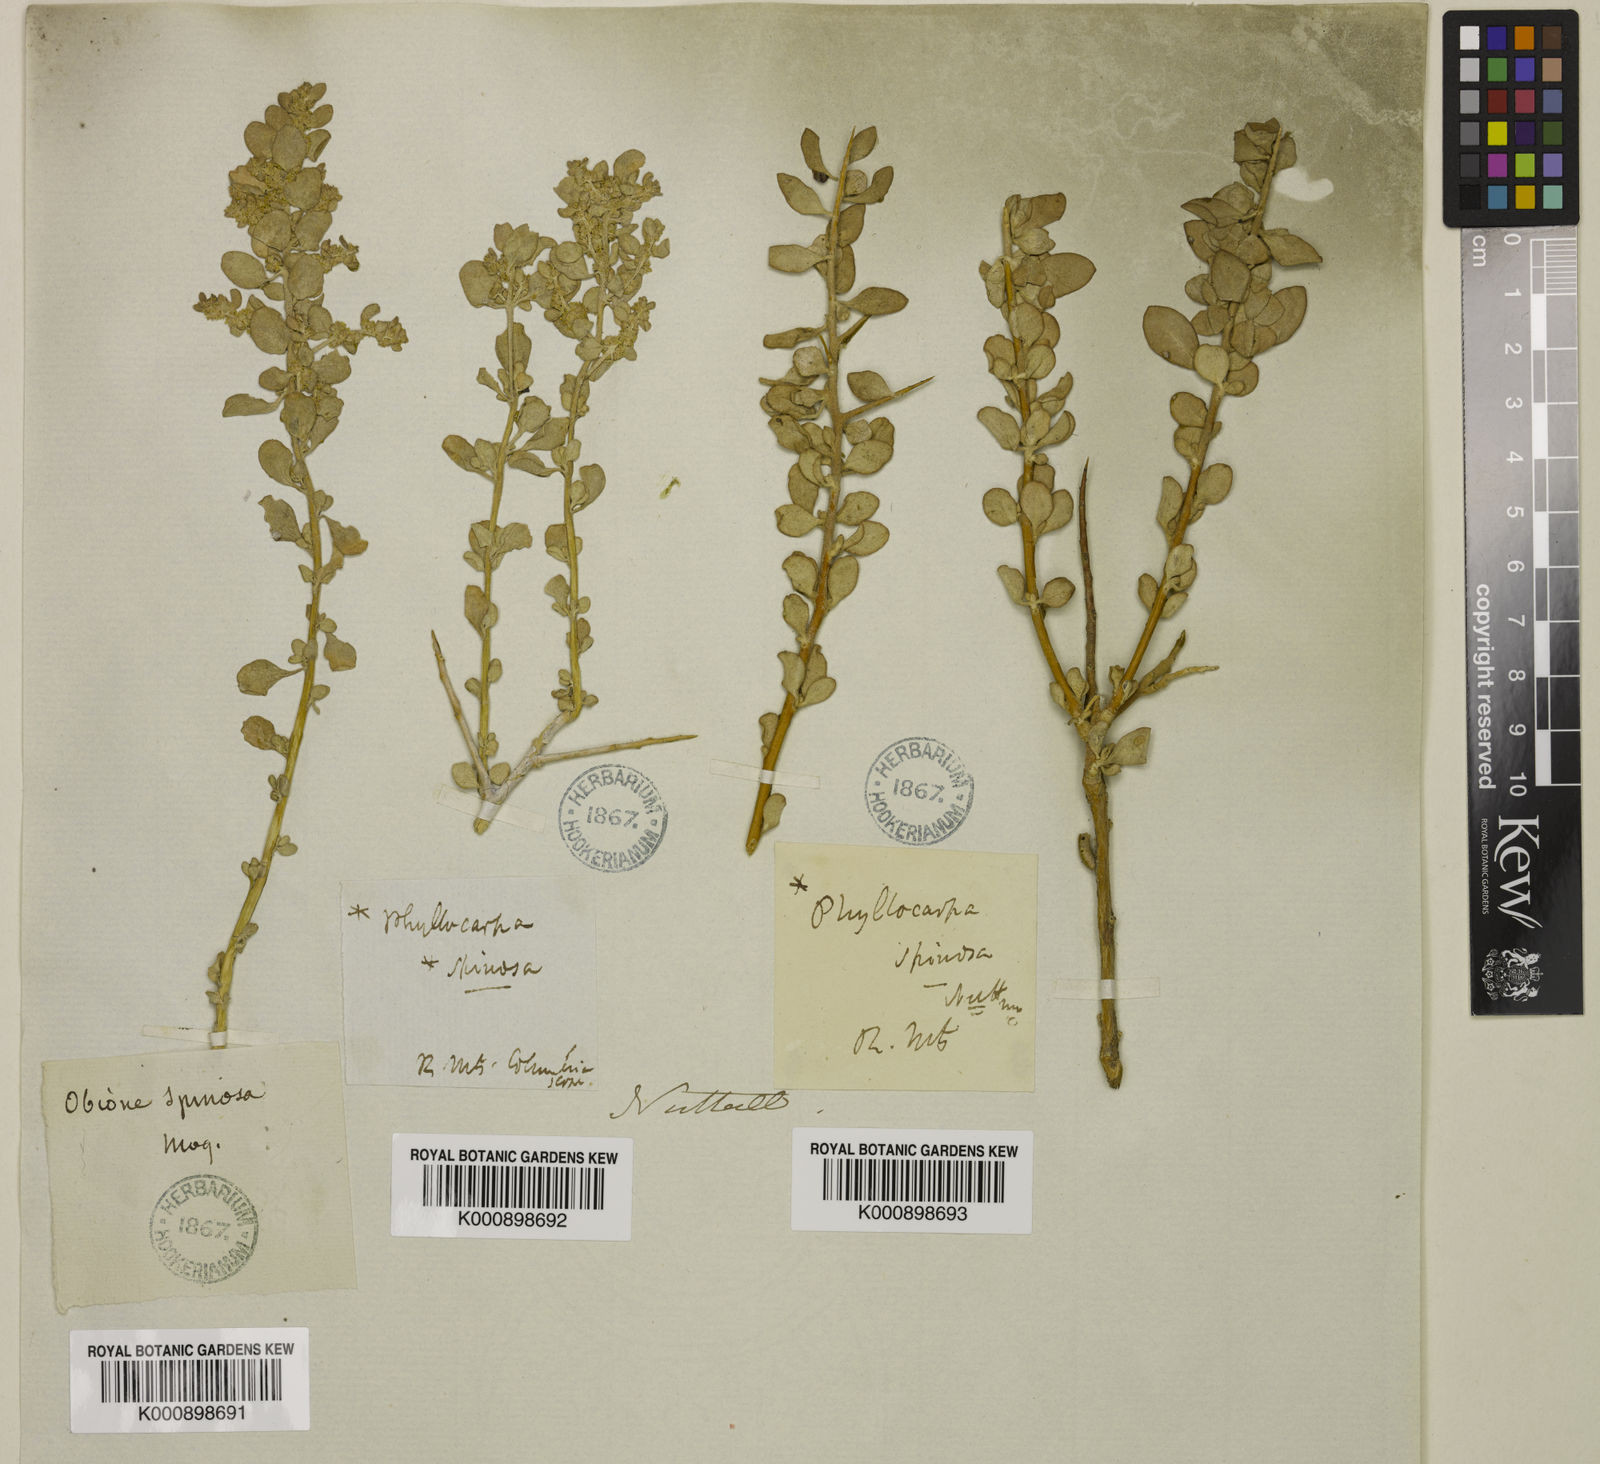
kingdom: Plantae
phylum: Tracheophyta
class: Magnoliopsida
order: Caryophyllales
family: Amaranthaceae
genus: Atriplex
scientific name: Atriplex
